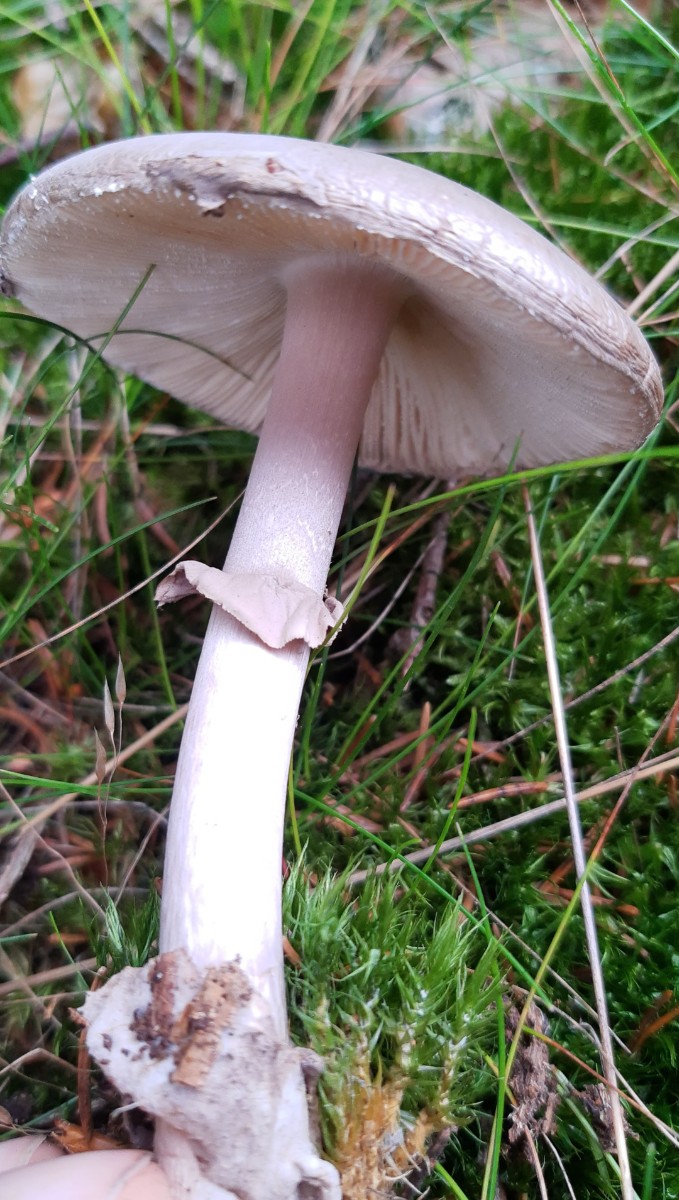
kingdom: Fungi
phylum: Basidiomycota
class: Agaricomycetes
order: Agaricales
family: Amanitaceae
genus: Amanita
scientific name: Amanita porphyria
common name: porfyr-fluesvamp
